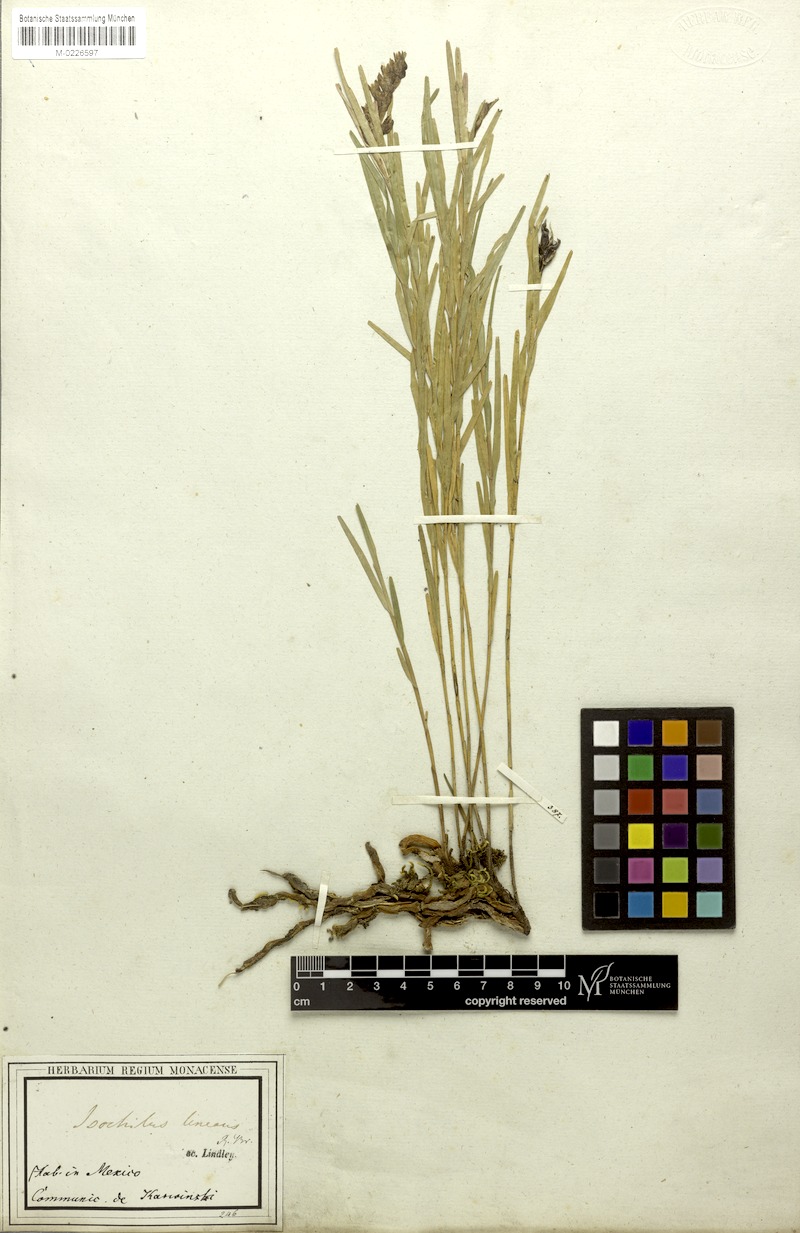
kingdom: Plantae
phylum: Tracheophyta
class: Liliopsida
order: Asparagales
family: Orchidaceae
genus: Isochilus
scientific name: Isochilus linearis
